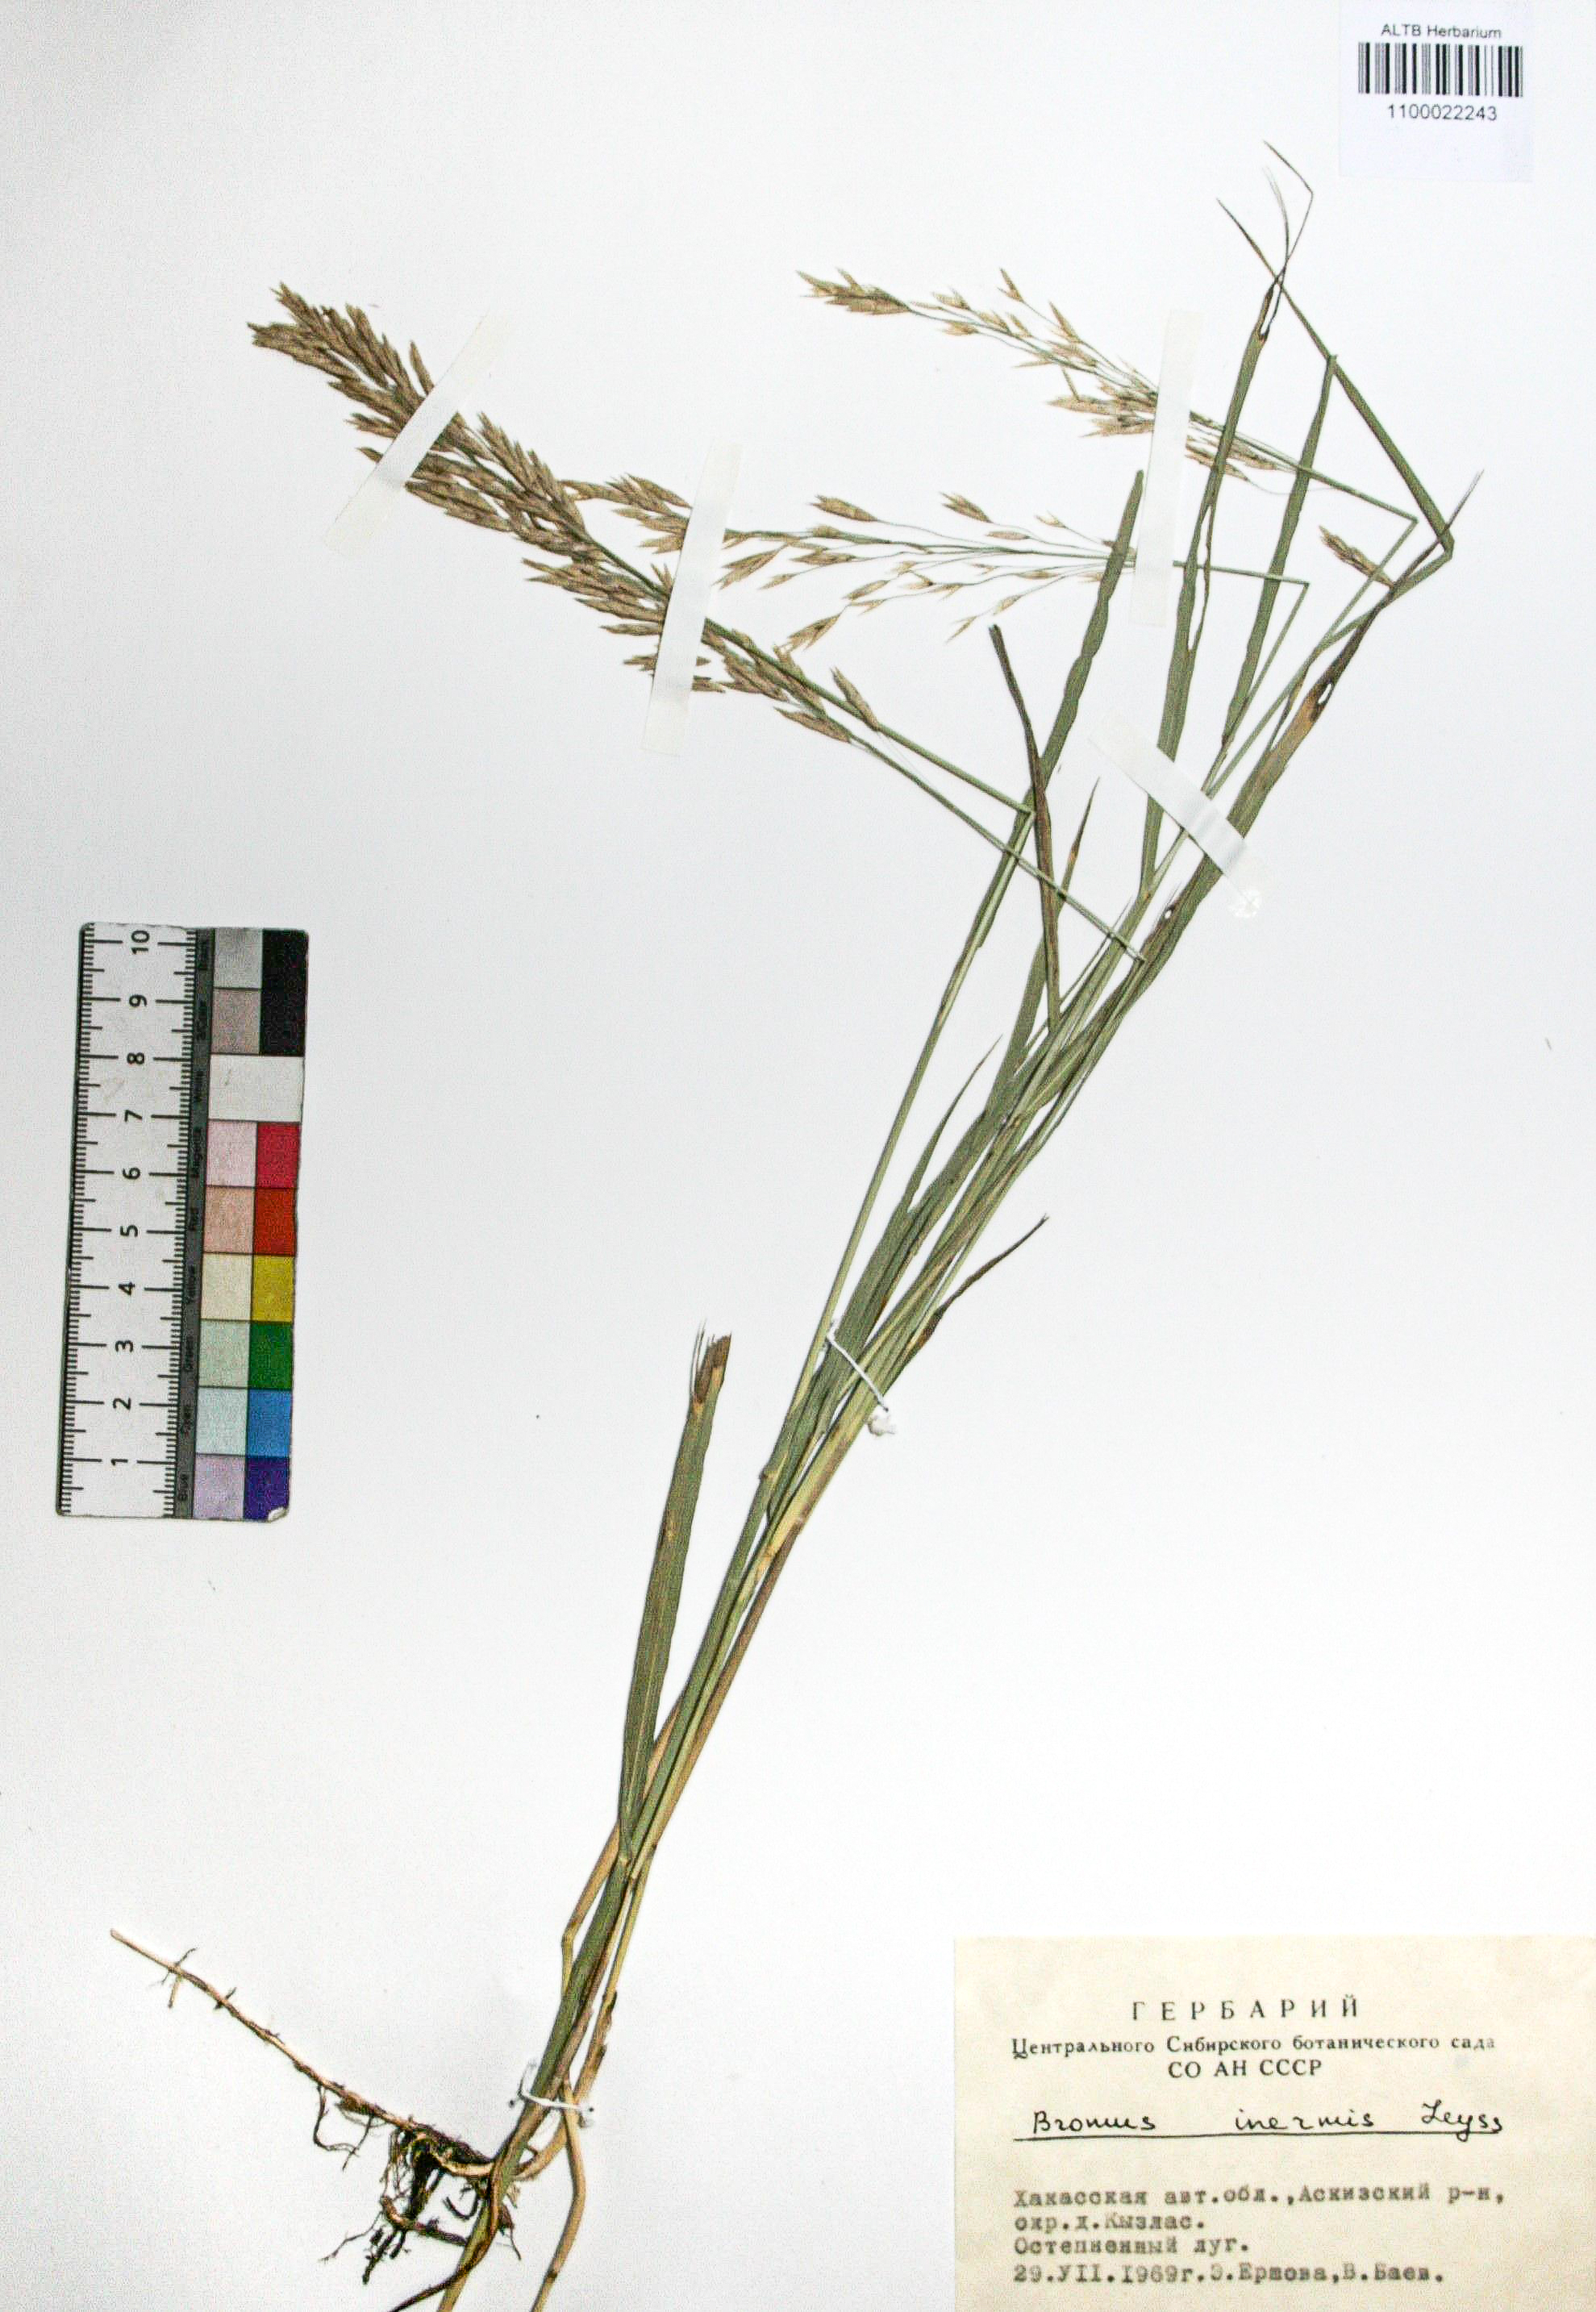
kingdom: Plantae
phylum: Tracheophyta
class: Liliopsida
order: Poales
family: Poaceae
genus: Bromus
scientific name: Bromus inermis
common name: Smooth brome
